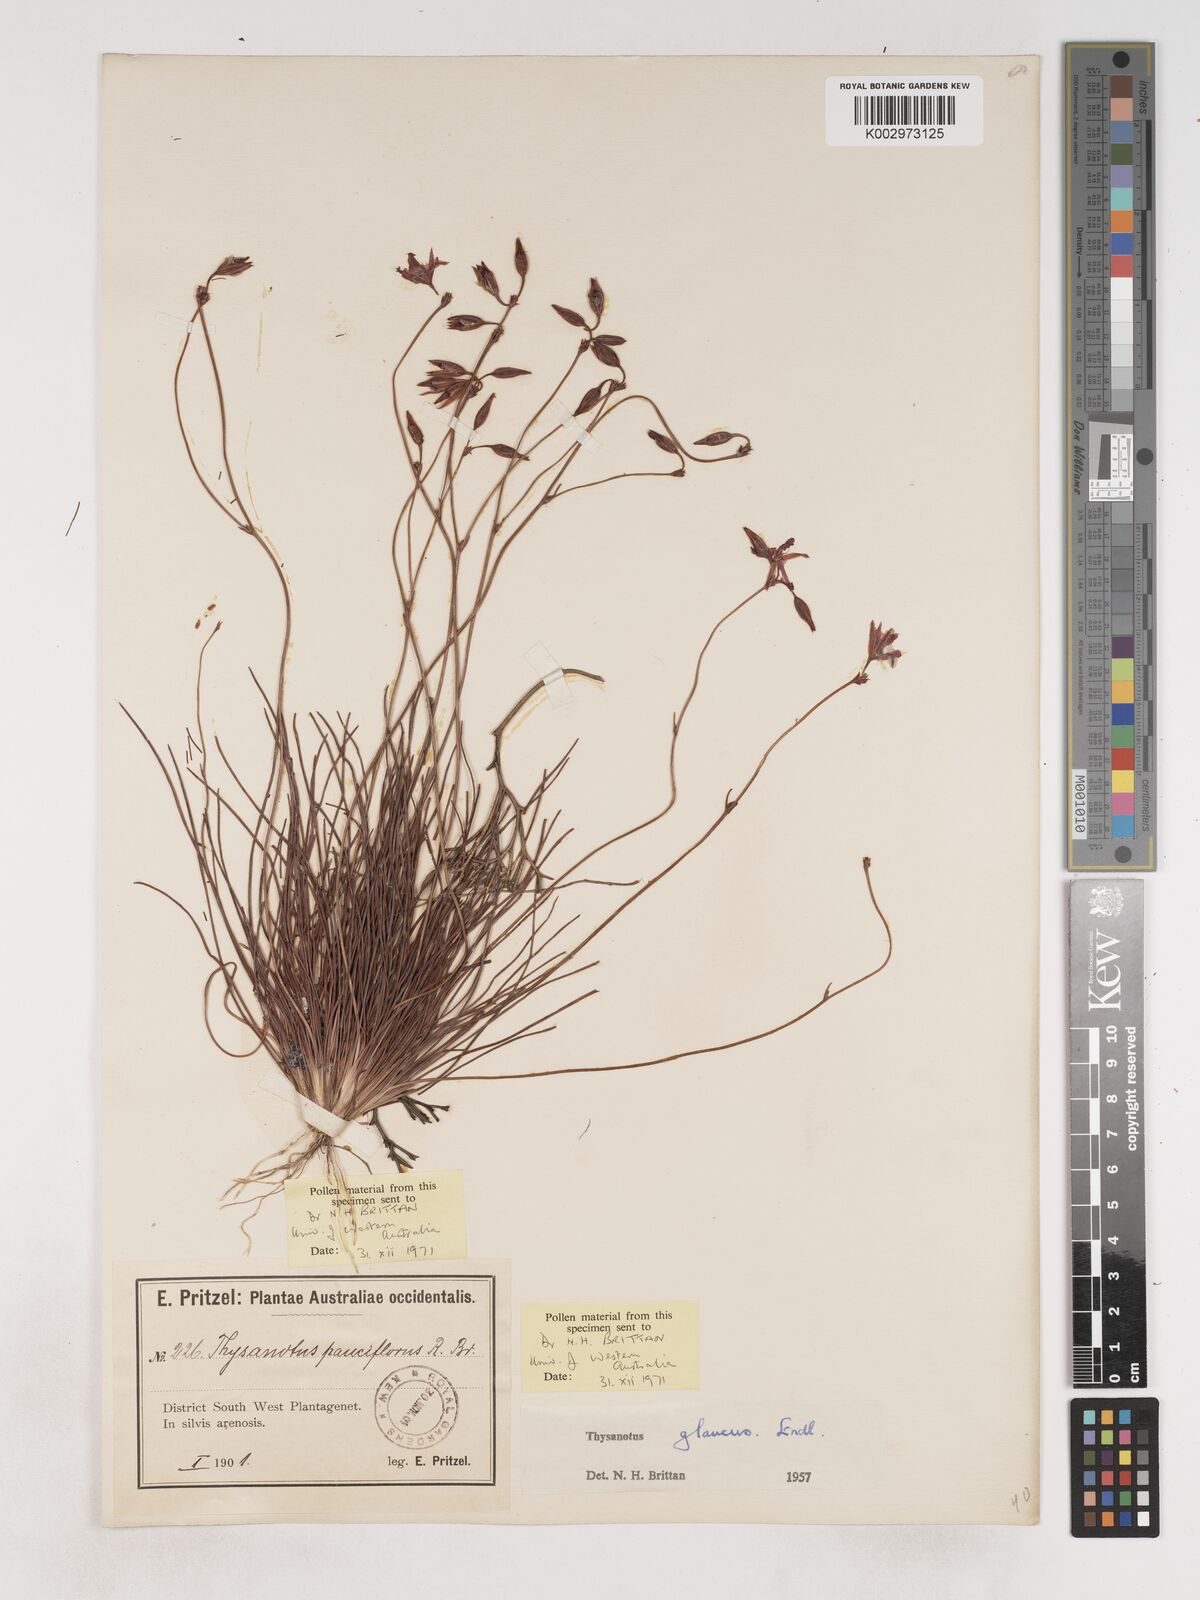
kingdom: Plantae
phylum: Tracheophyta
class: Liliopsida
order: Asparagales
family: Asparagaceae
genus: Thysanotus
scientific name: Thysanotus glaucus
